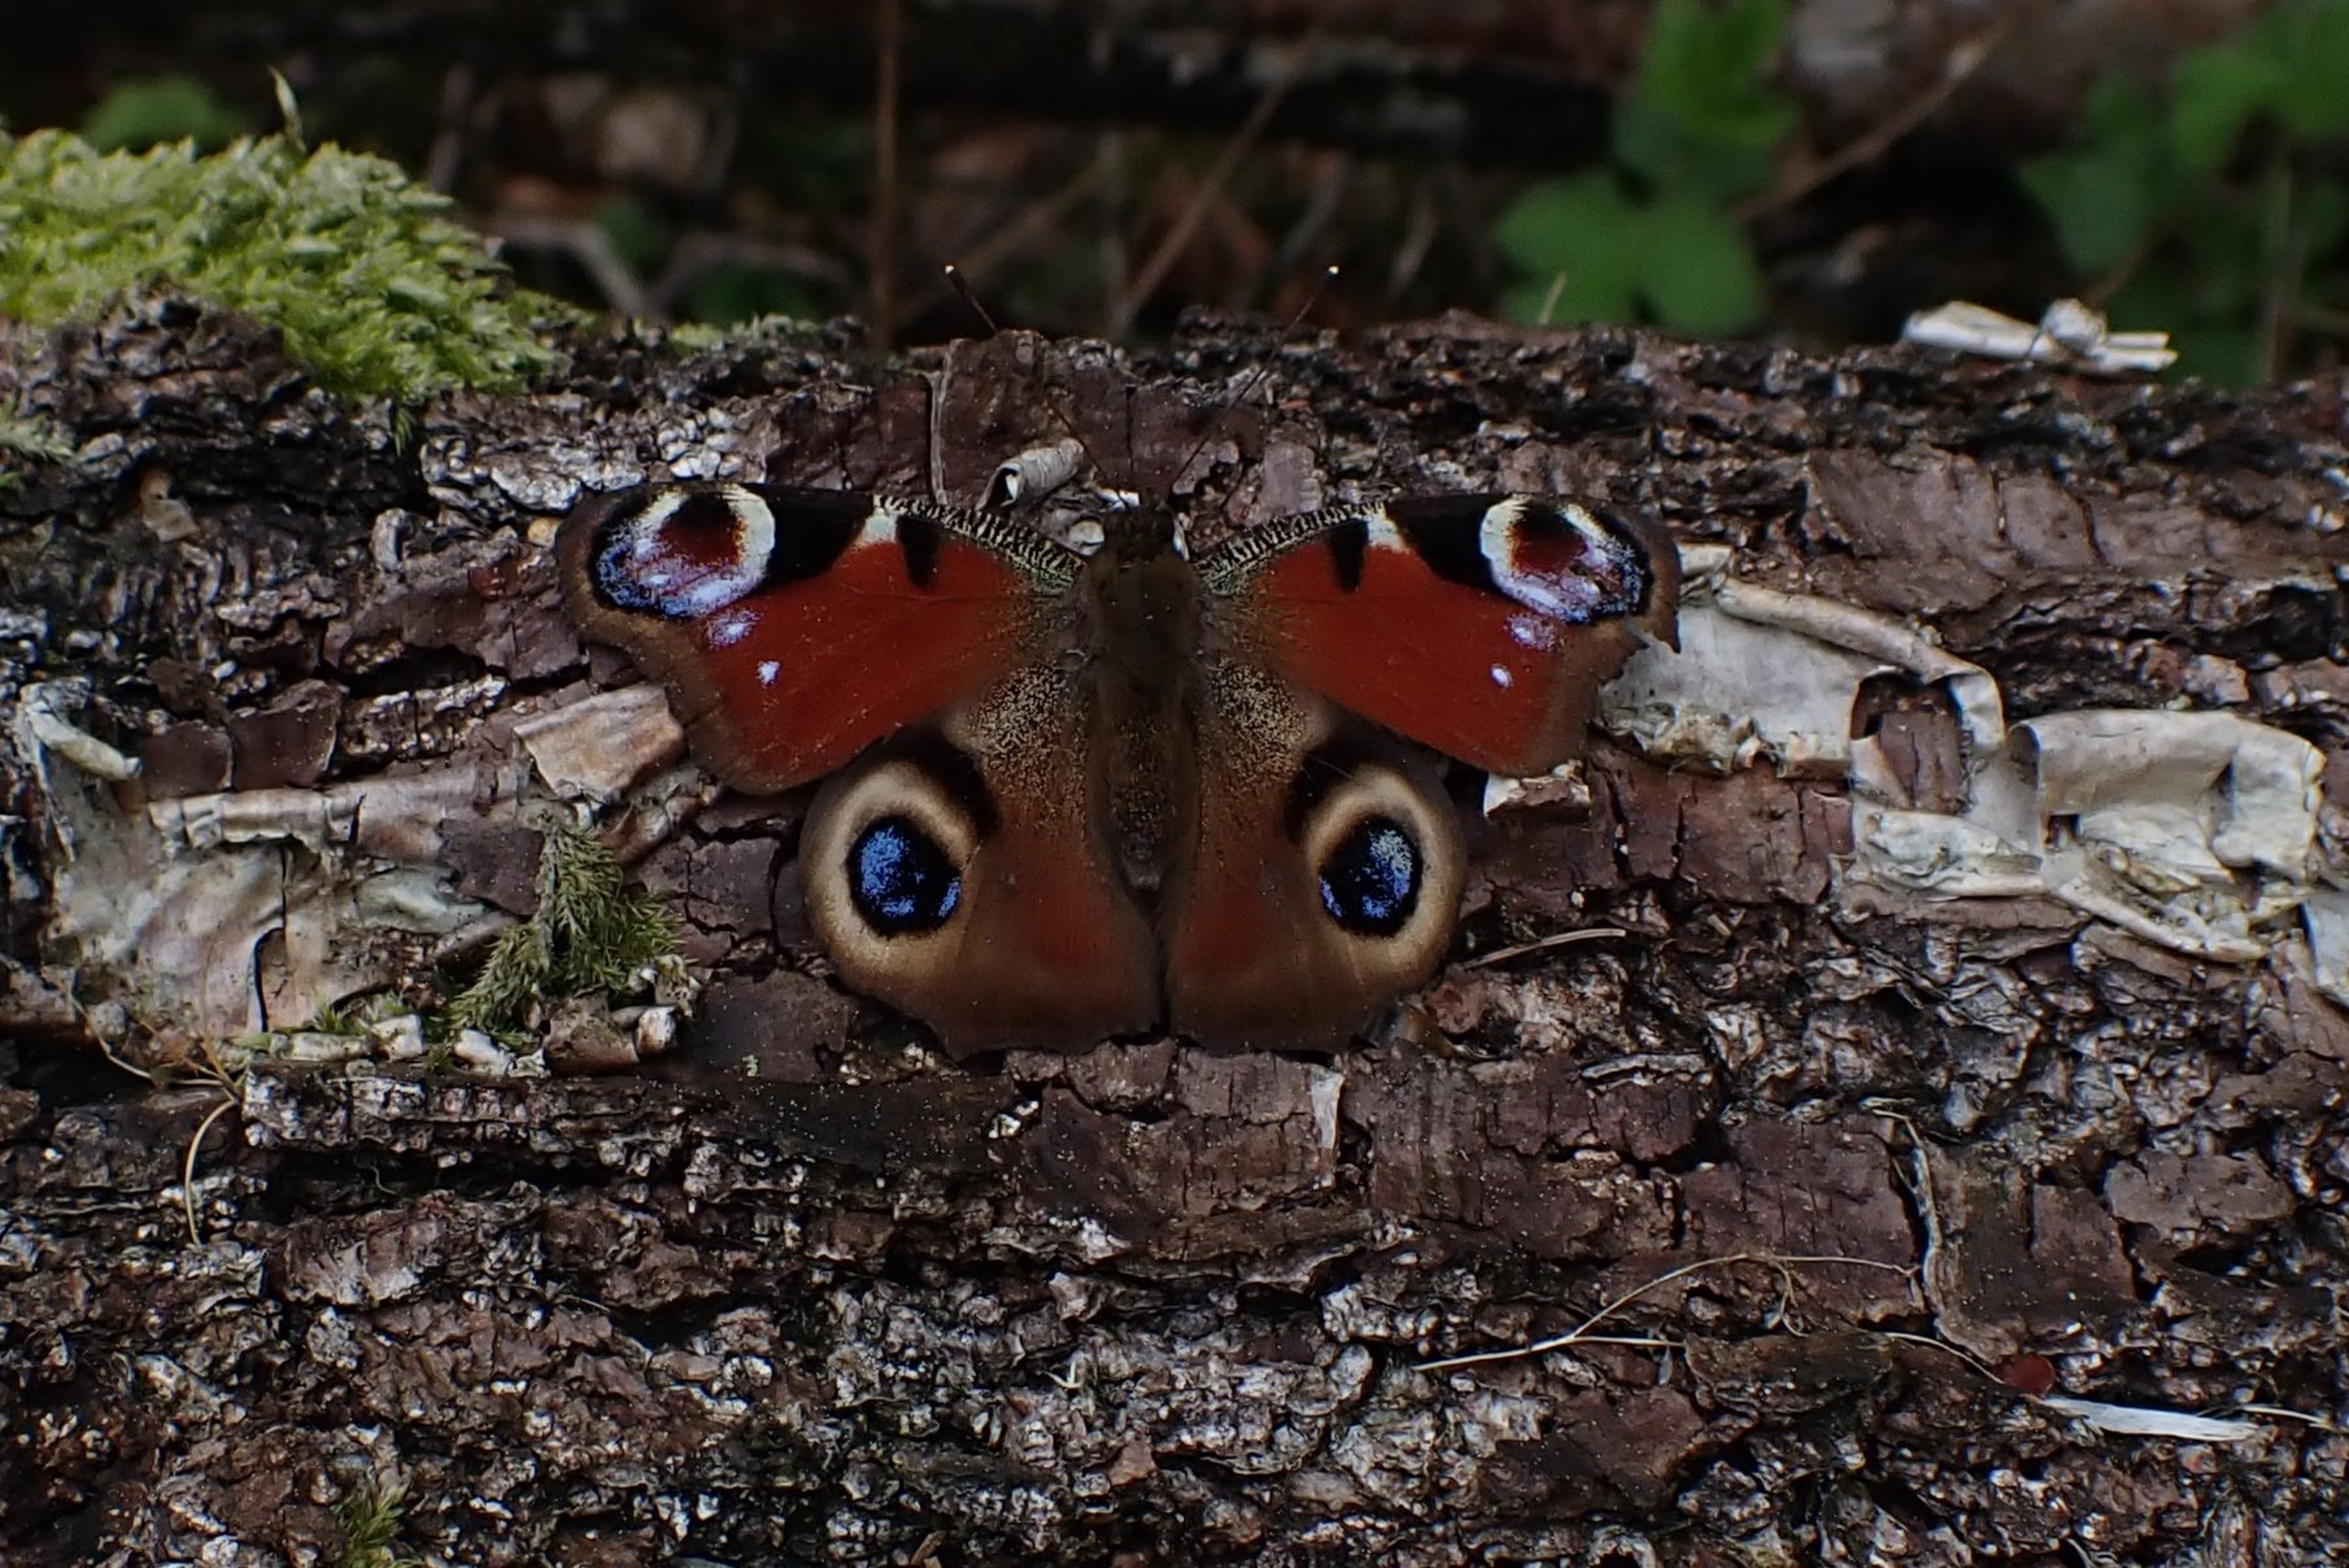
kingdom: Animalia
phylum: Arthropoda
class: Insecta
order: Lepidoptera
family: Nymphalidae
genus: Aglais
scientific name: Aglais io
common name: Dagpåfugleøje
